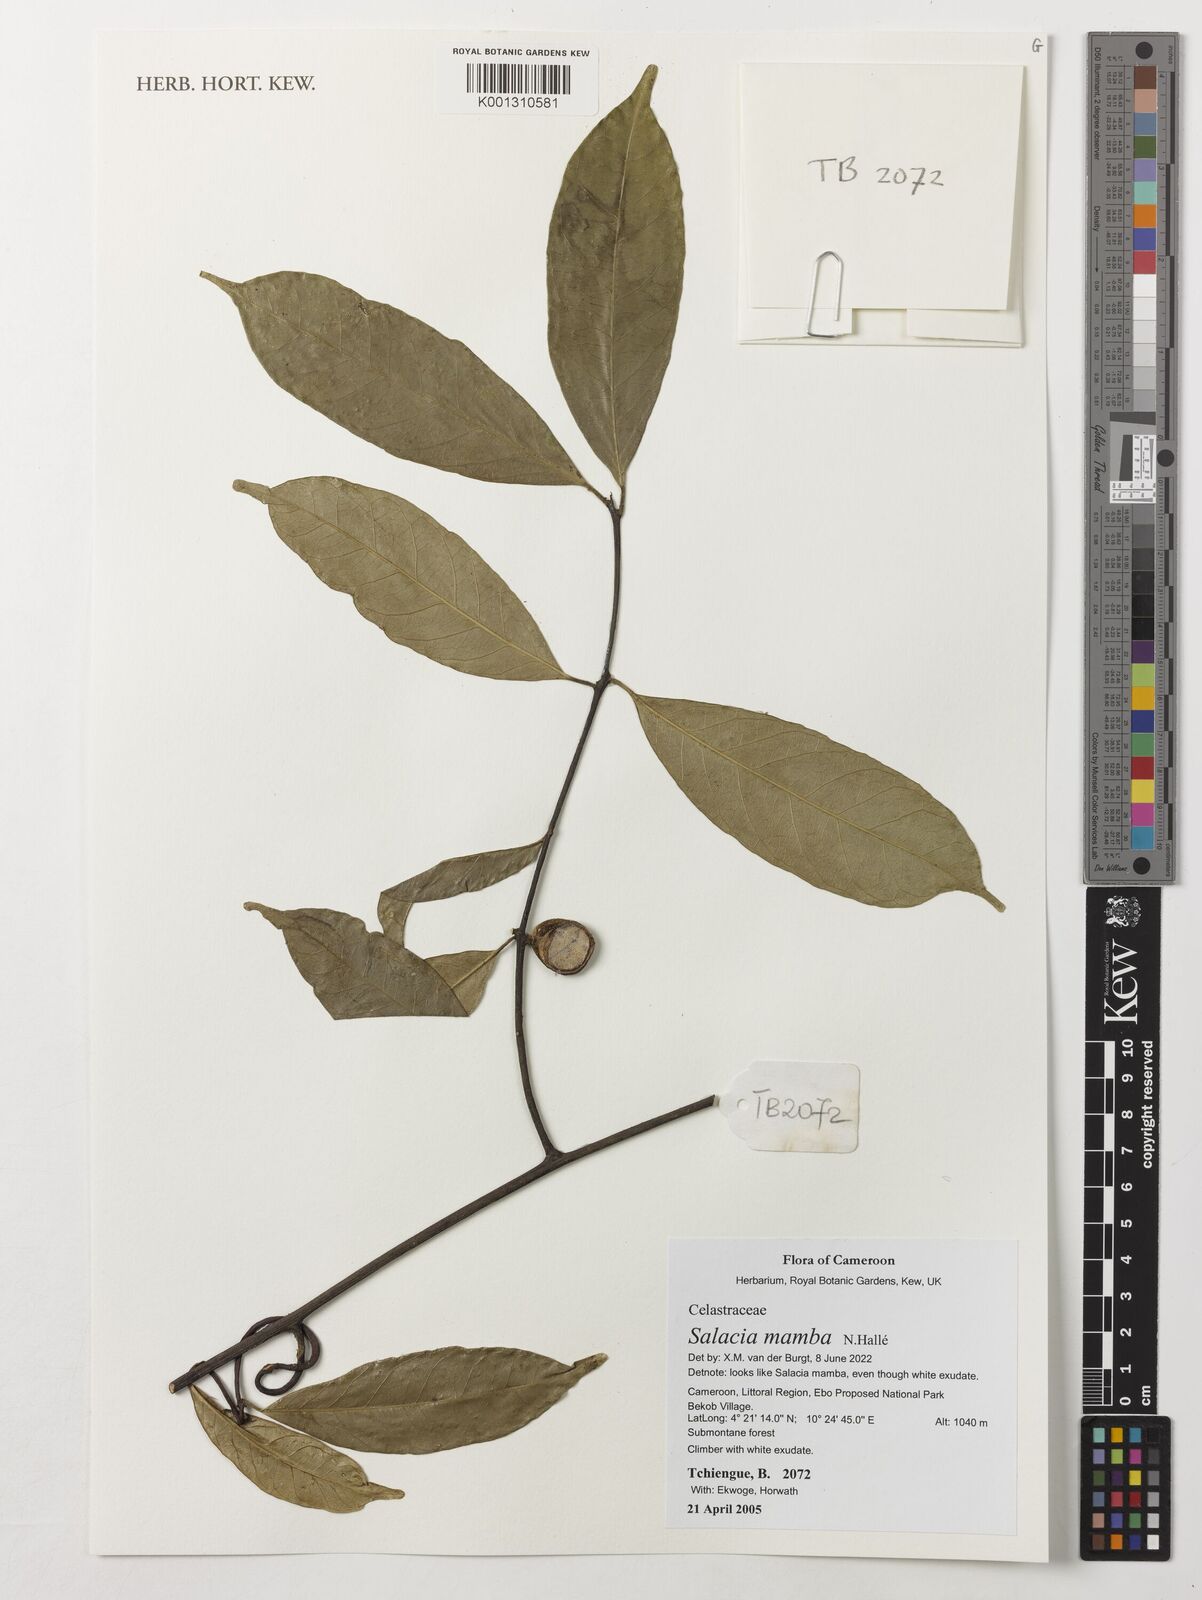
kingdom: Plantae
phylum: Tracheophyta
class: Magnoliopsida
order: Celastrales
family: Celastraceae
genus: Salacia
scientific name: Salacia mamba
